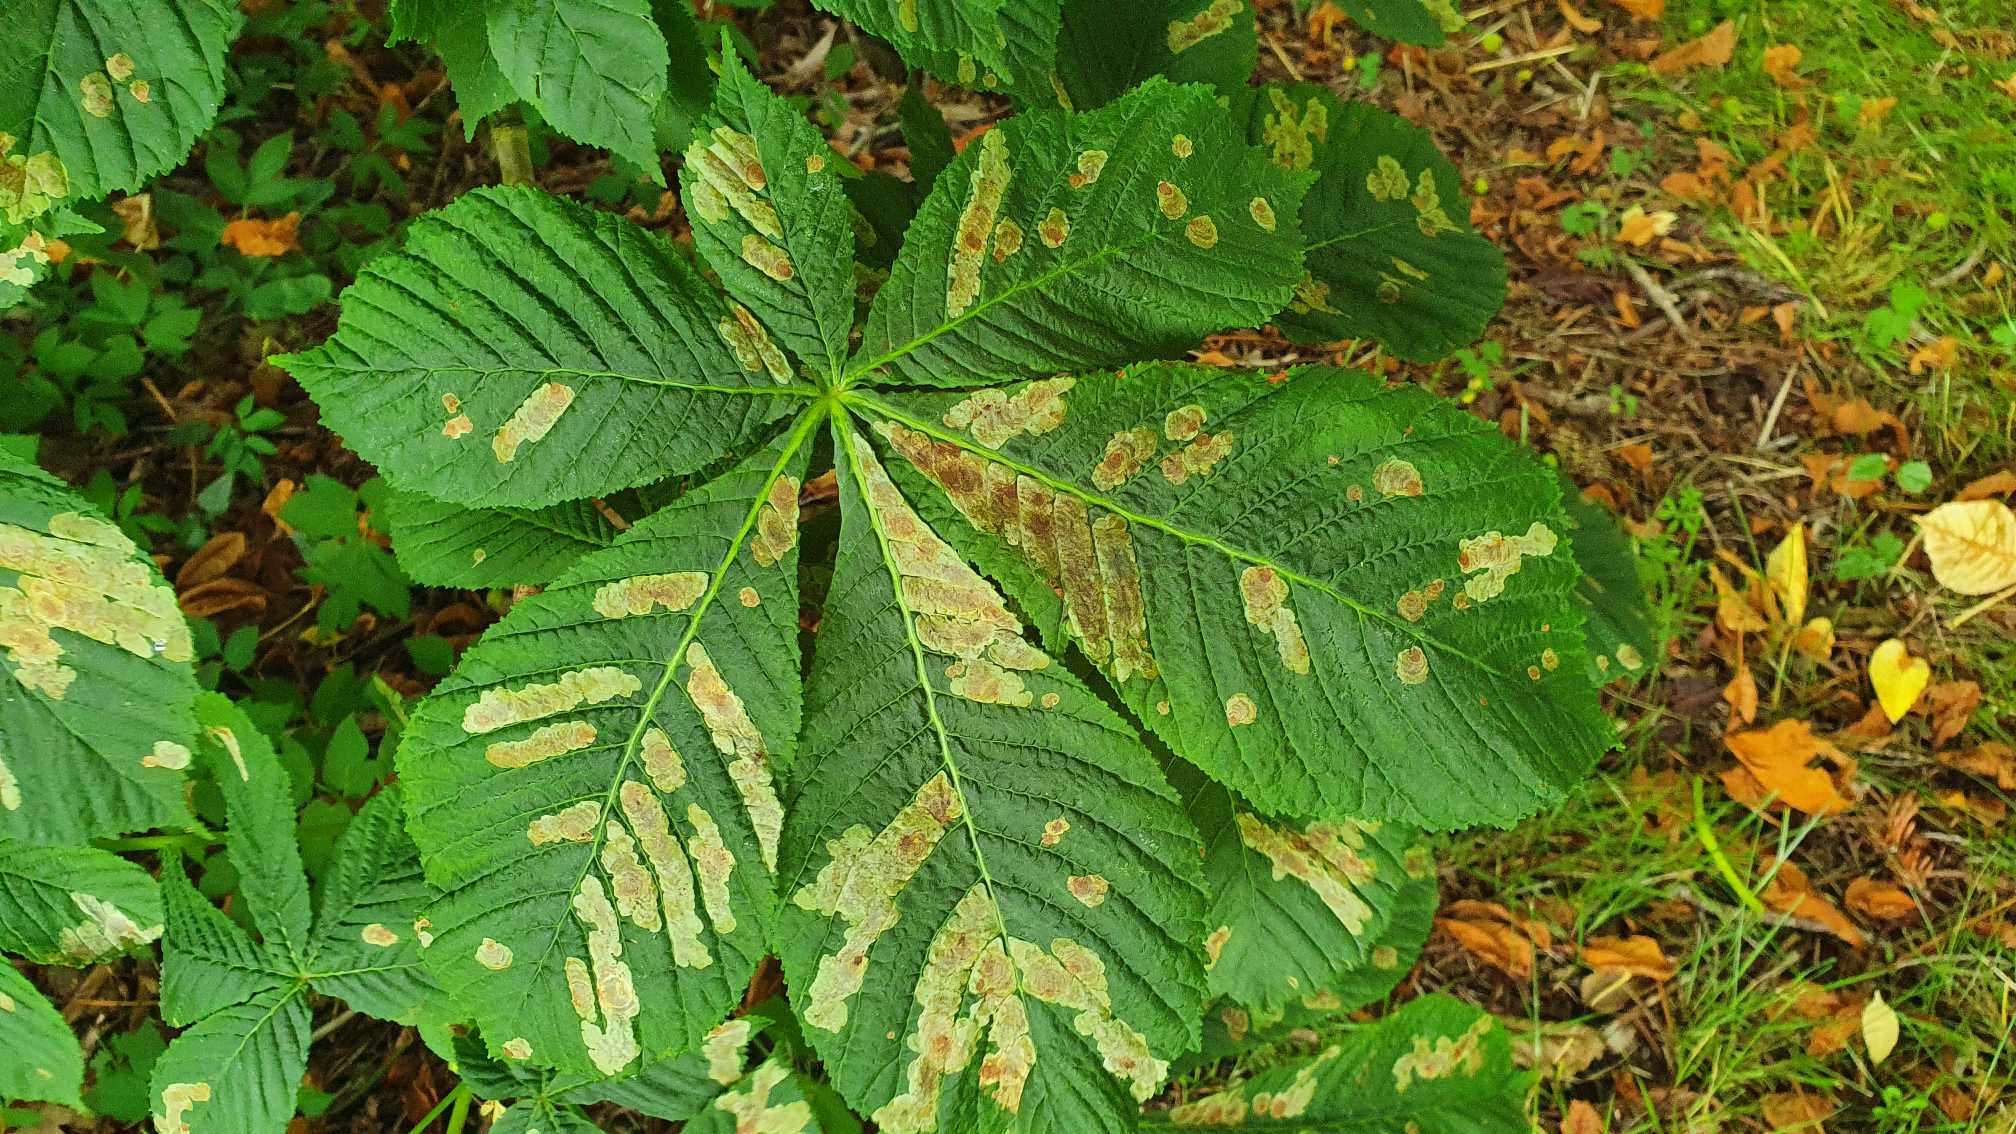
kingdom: Animalia
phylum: Arthropoda
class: Insecta
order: Lepidoptera
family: Gracillariidae
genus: Cameraria
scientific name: Cameraria ohridella
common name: Kastanieminérmøl
